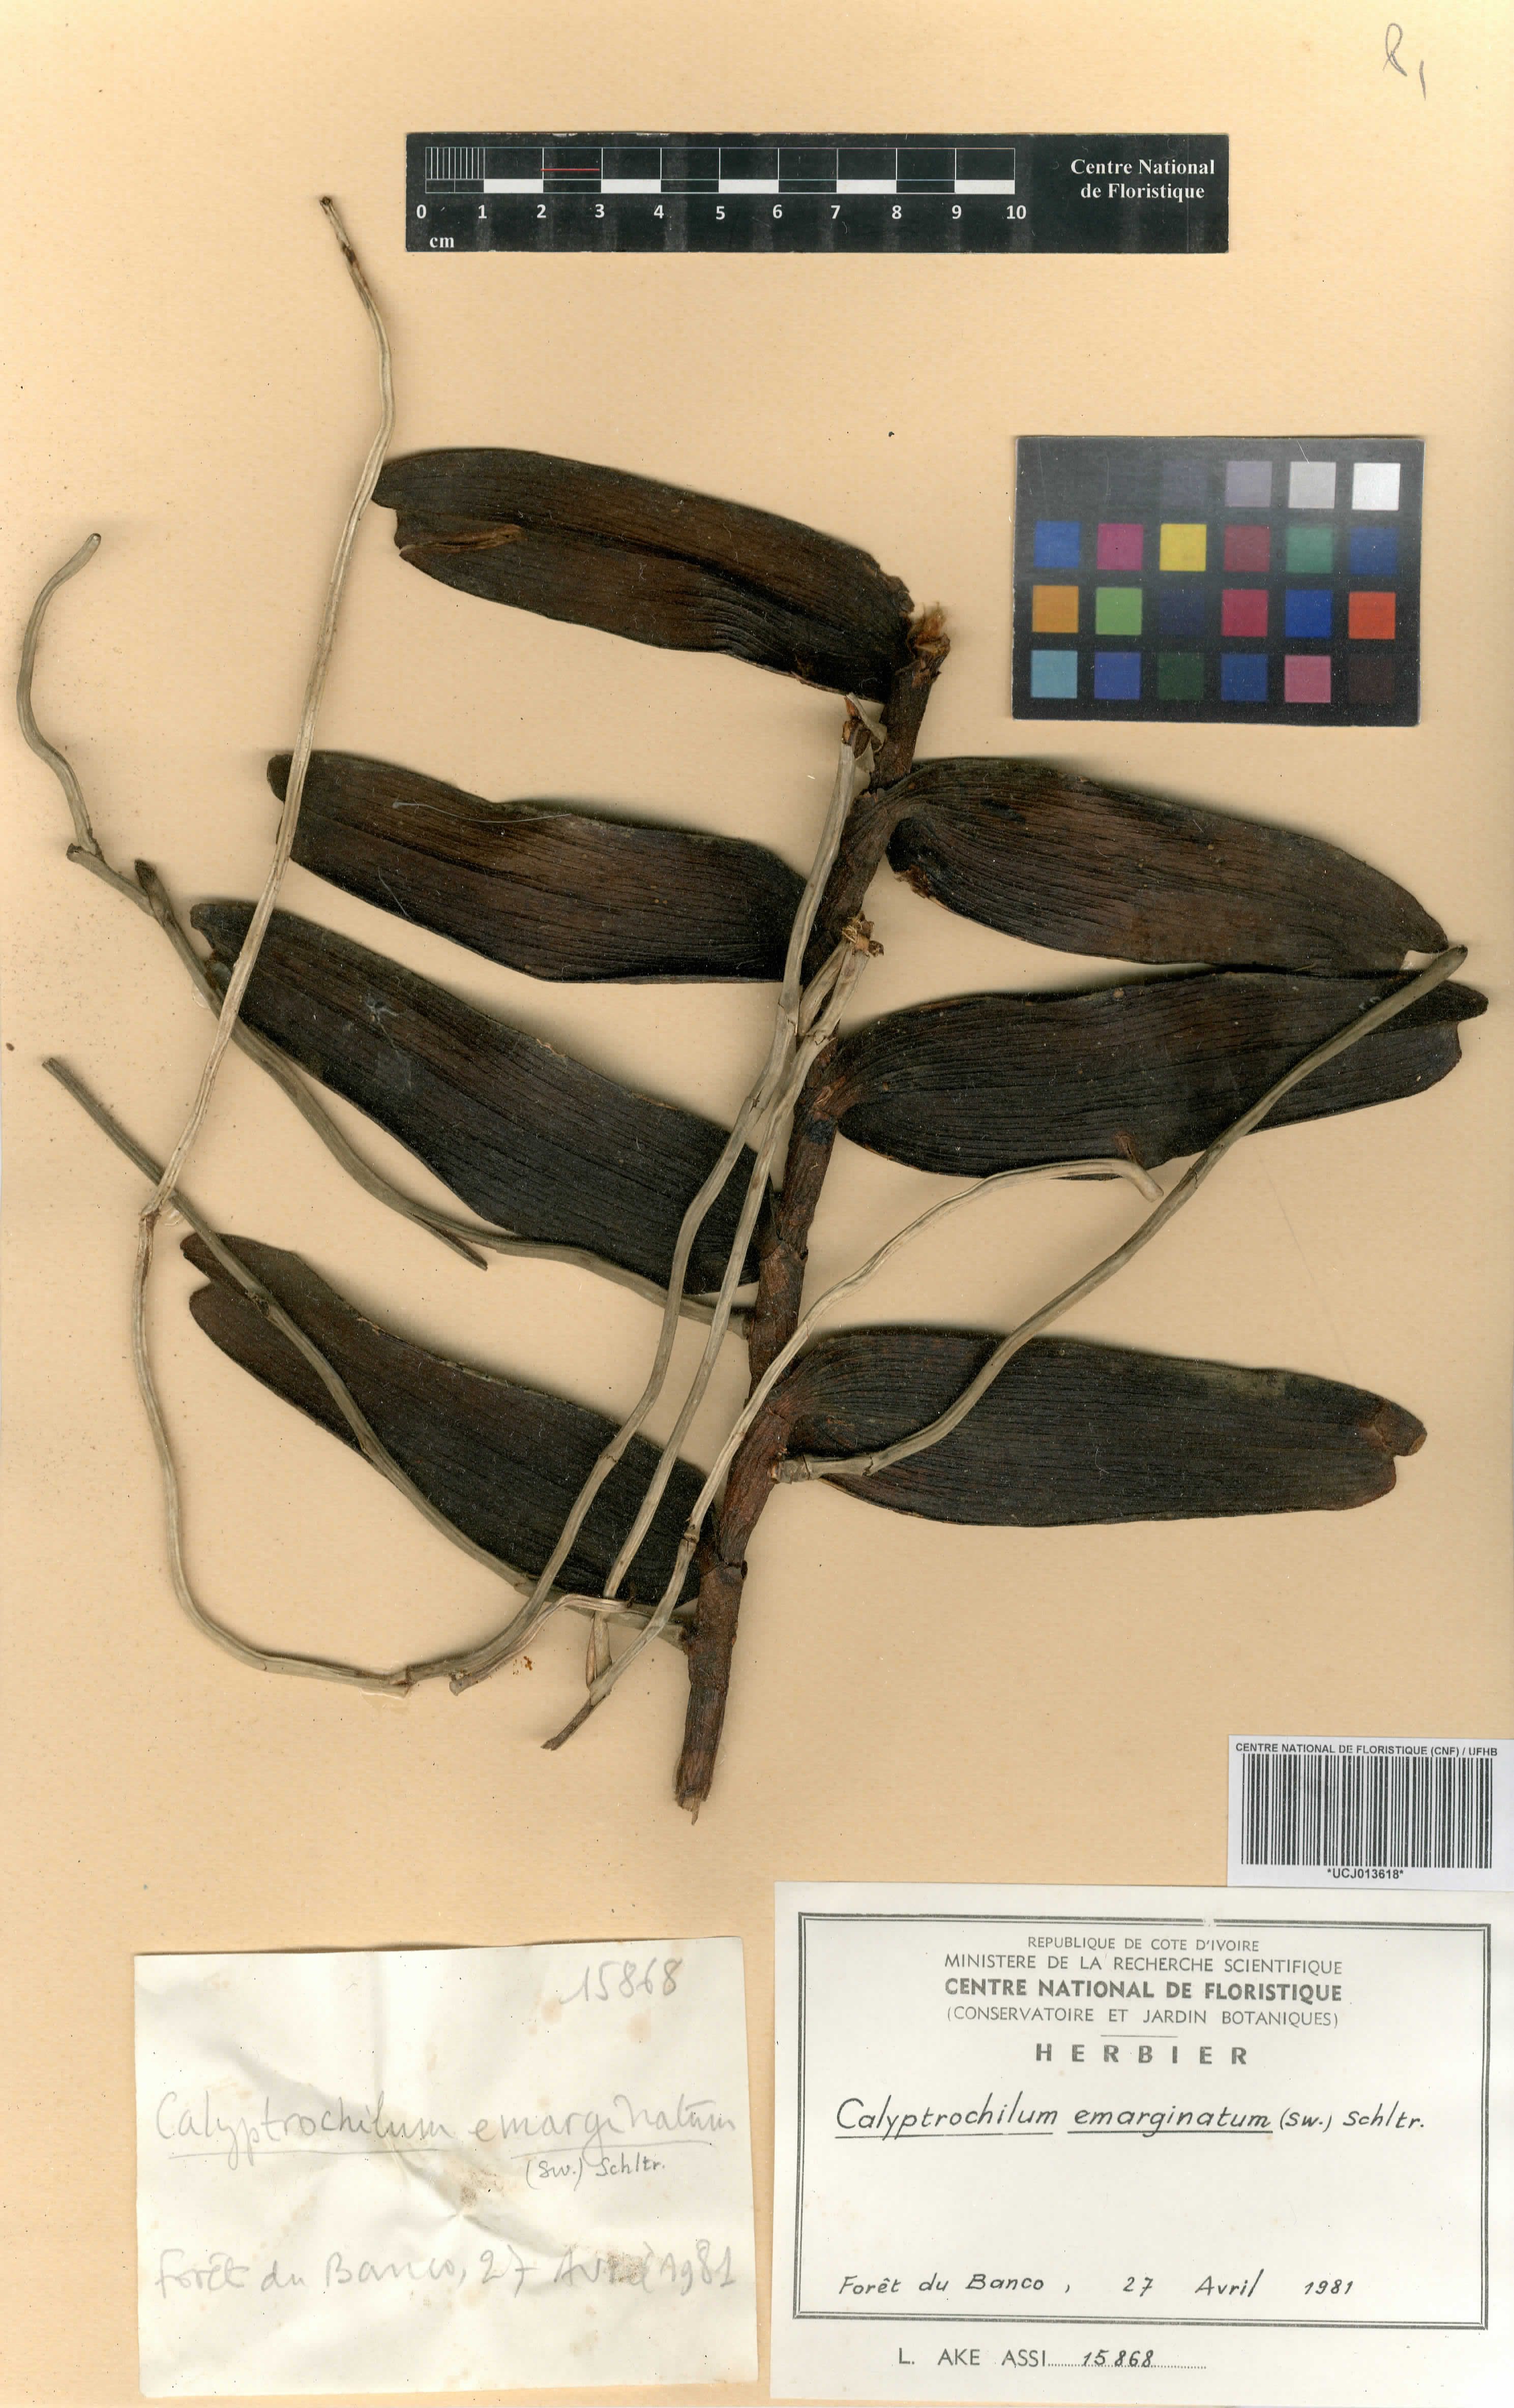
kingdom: Plantae
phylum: Tracheophyta
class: Liliopsida
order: Asparagales
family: Orchidaceae
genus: Calyptrochilum
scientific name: Calyptrochilum emarginatum
